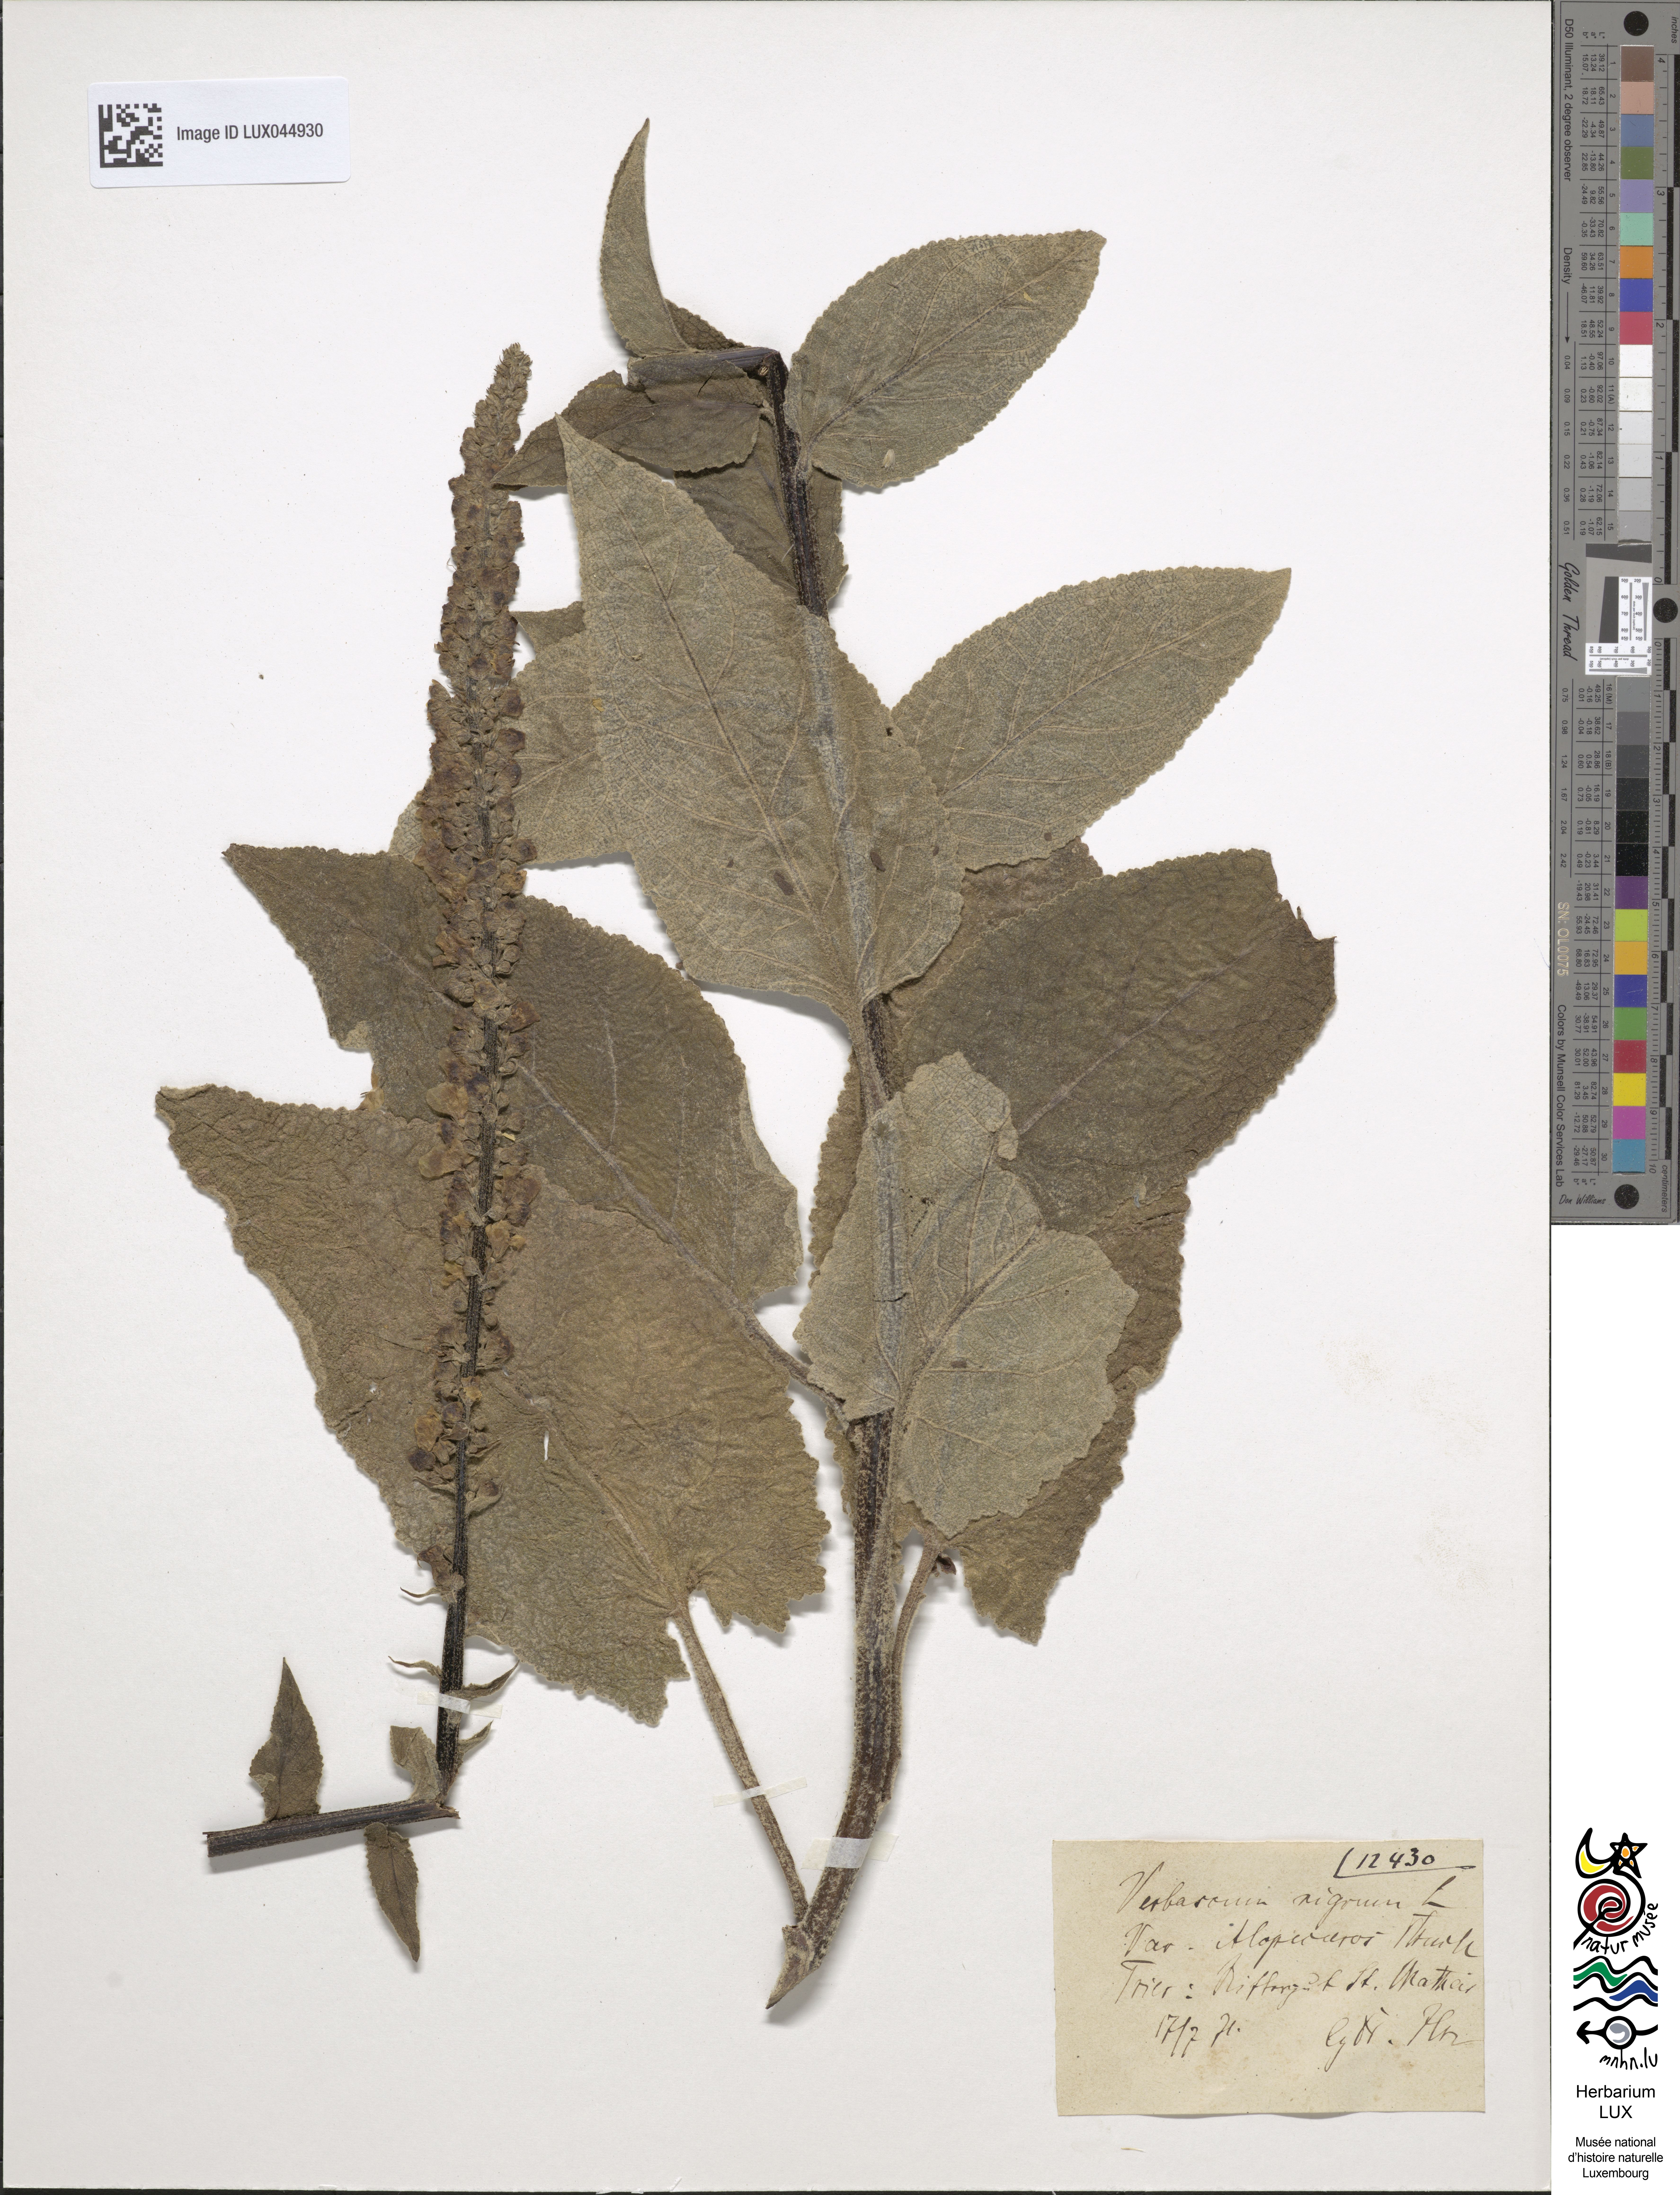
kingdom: Plantae
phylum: Tracheophyta
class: Magnoliopsida
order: Lamiales
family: Scrophulariaceae
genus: Verbascum
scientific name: Verbascum nigrum
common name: Dark mullein
